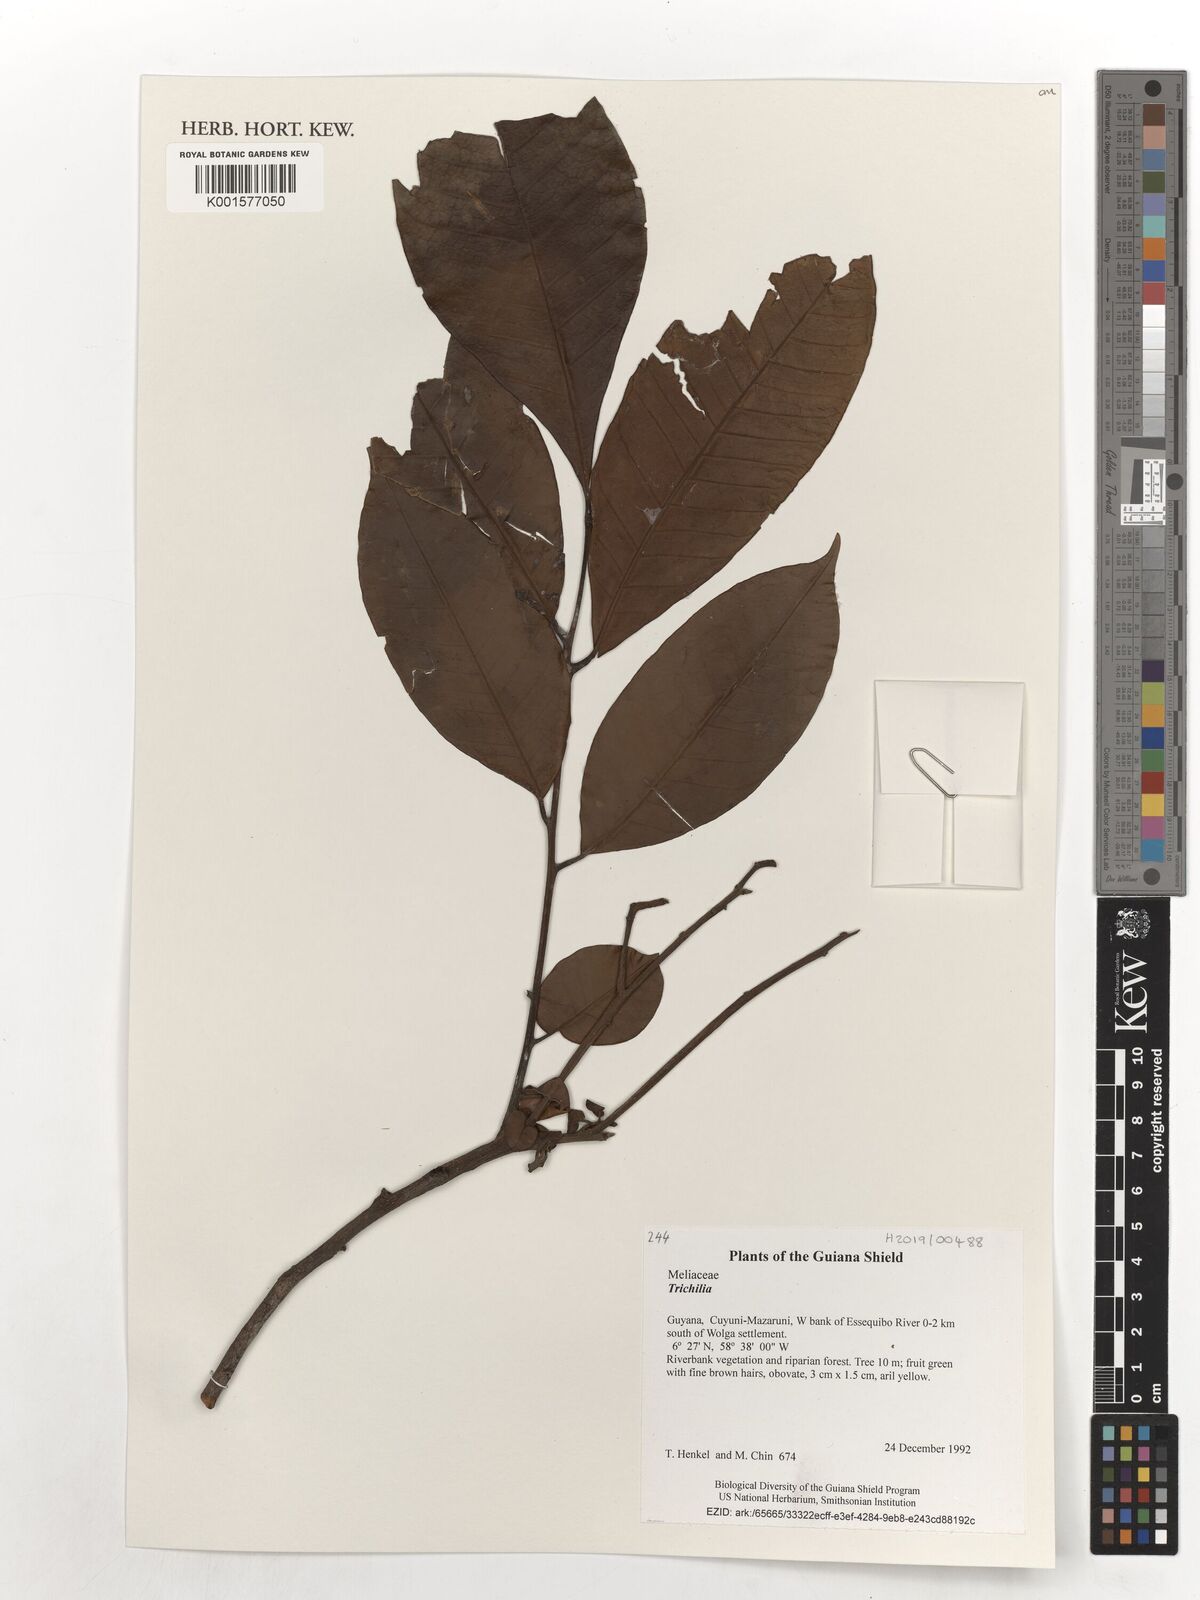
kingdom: Plantae
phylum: Tracheophyta
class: Magnoliopsida
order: Sapindales
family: Meliaceae
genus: Trichilia
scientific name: Trichilia
